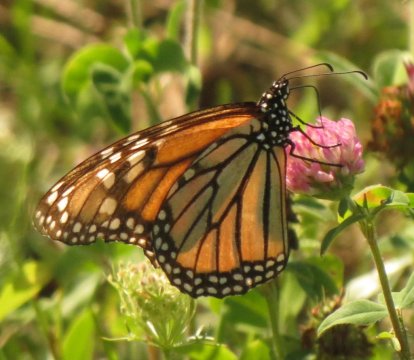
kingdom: Animalia
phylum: Arthropoda
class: Insecta
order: Lepidoptera
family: Nymphalidae
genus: Danaus
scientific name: Danaus plexippus
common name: Monarch
